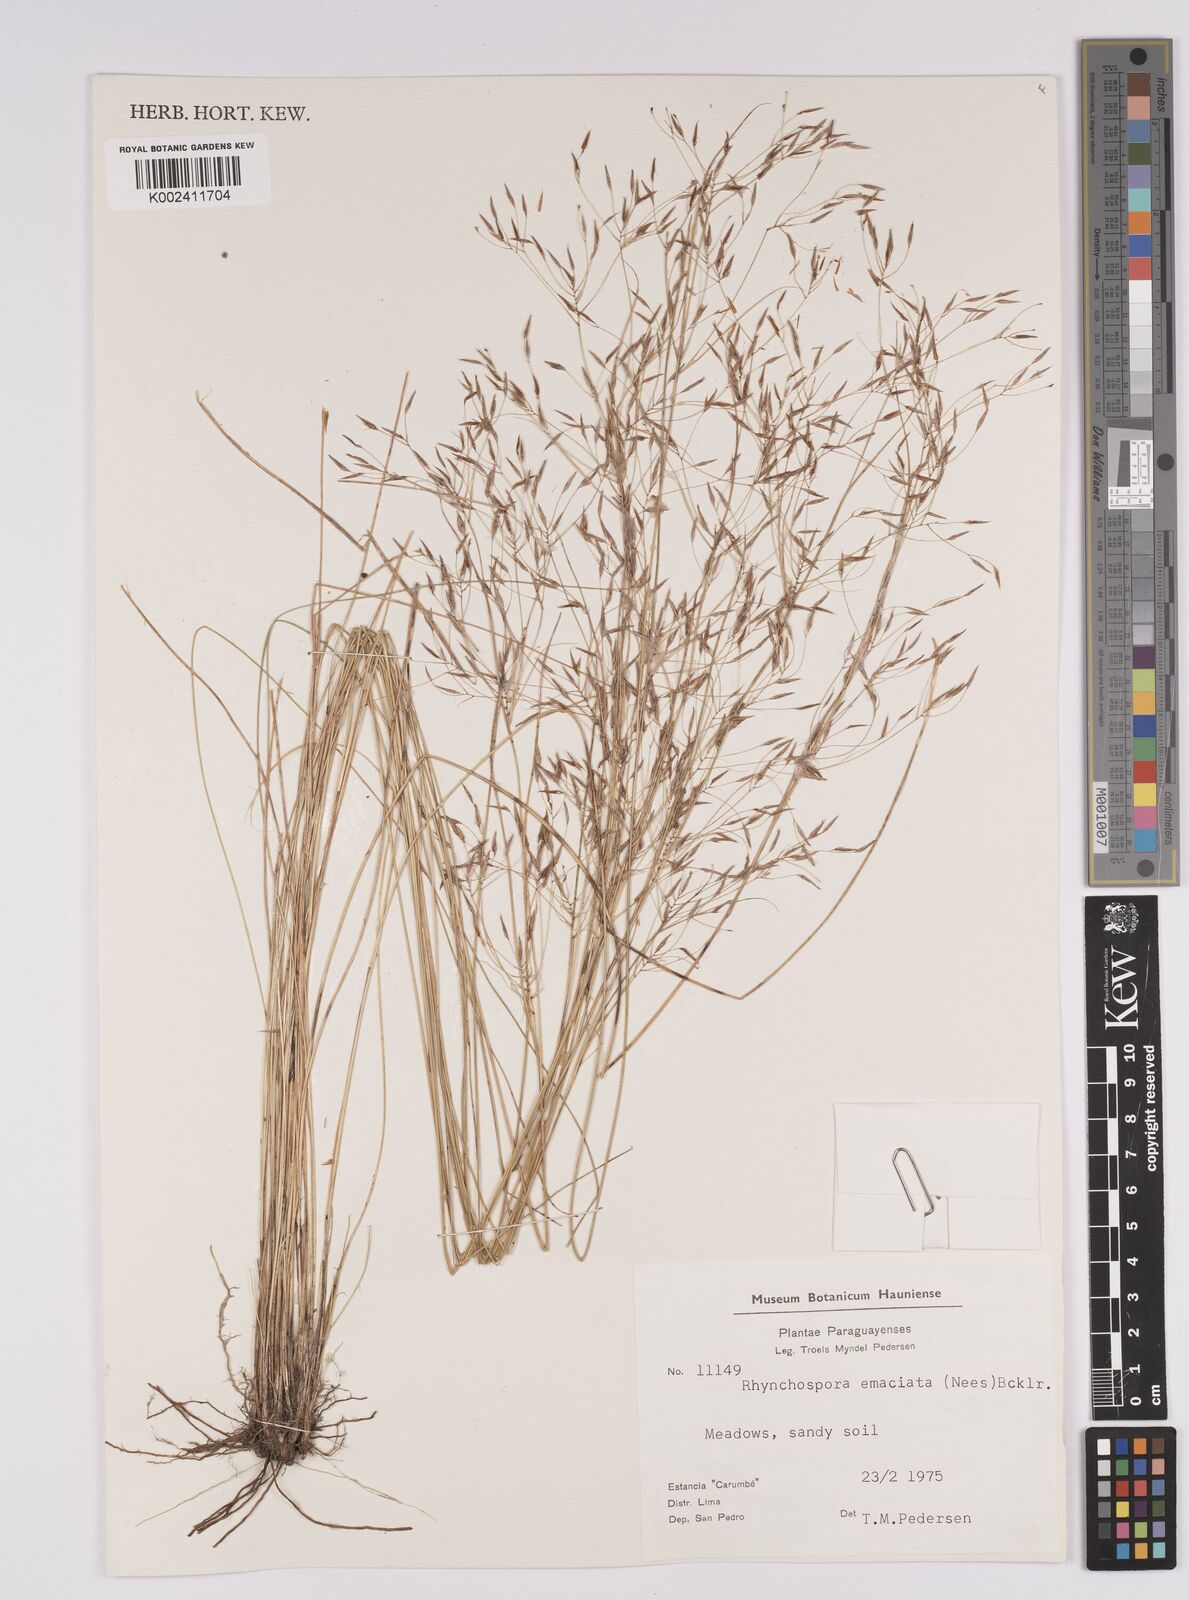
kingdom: Plantae
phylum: Tracheophyta
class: Liliopsida
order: Poales
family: Cyperaceae
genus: Rhynchospora
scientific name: Rhynchospora tenuis
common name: Quill beaksedge
